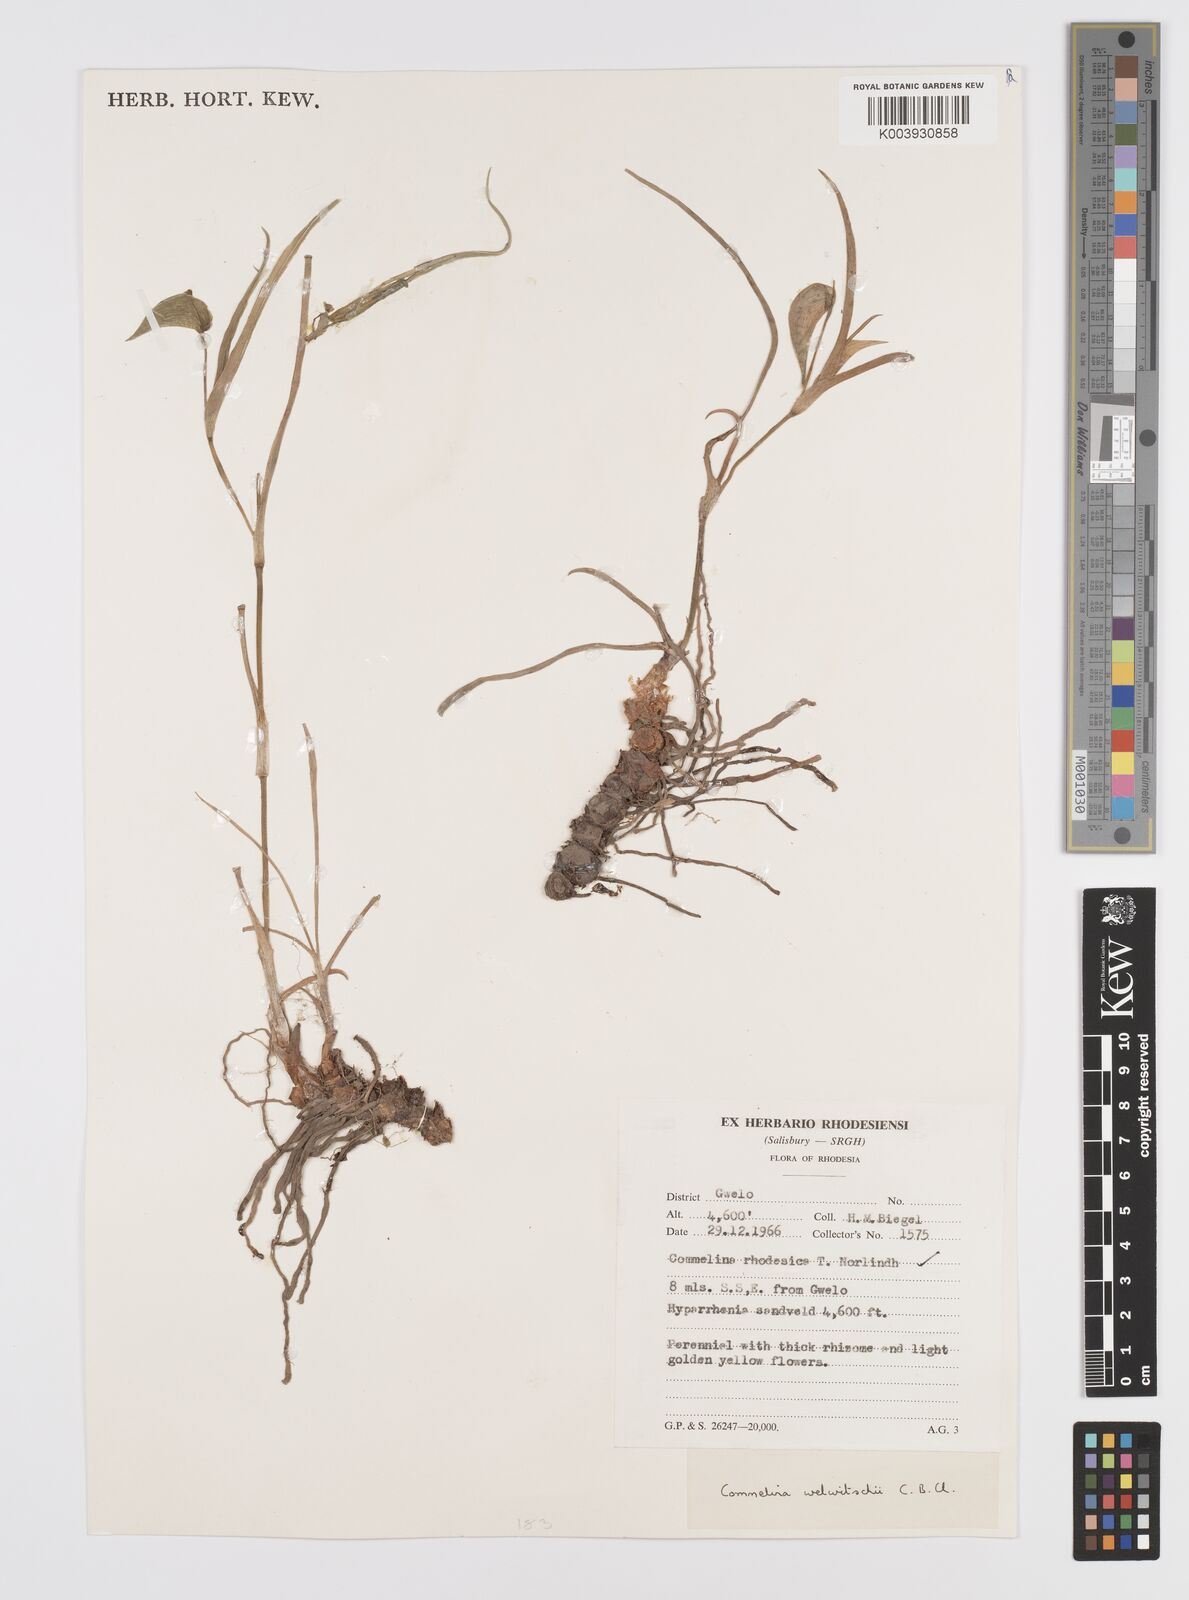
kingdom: Plantae
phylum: Tracheophyta
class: Liliopsida
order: Commelinales
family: Commelinaceae
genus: Commelina
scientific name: Commelina welwitschii
